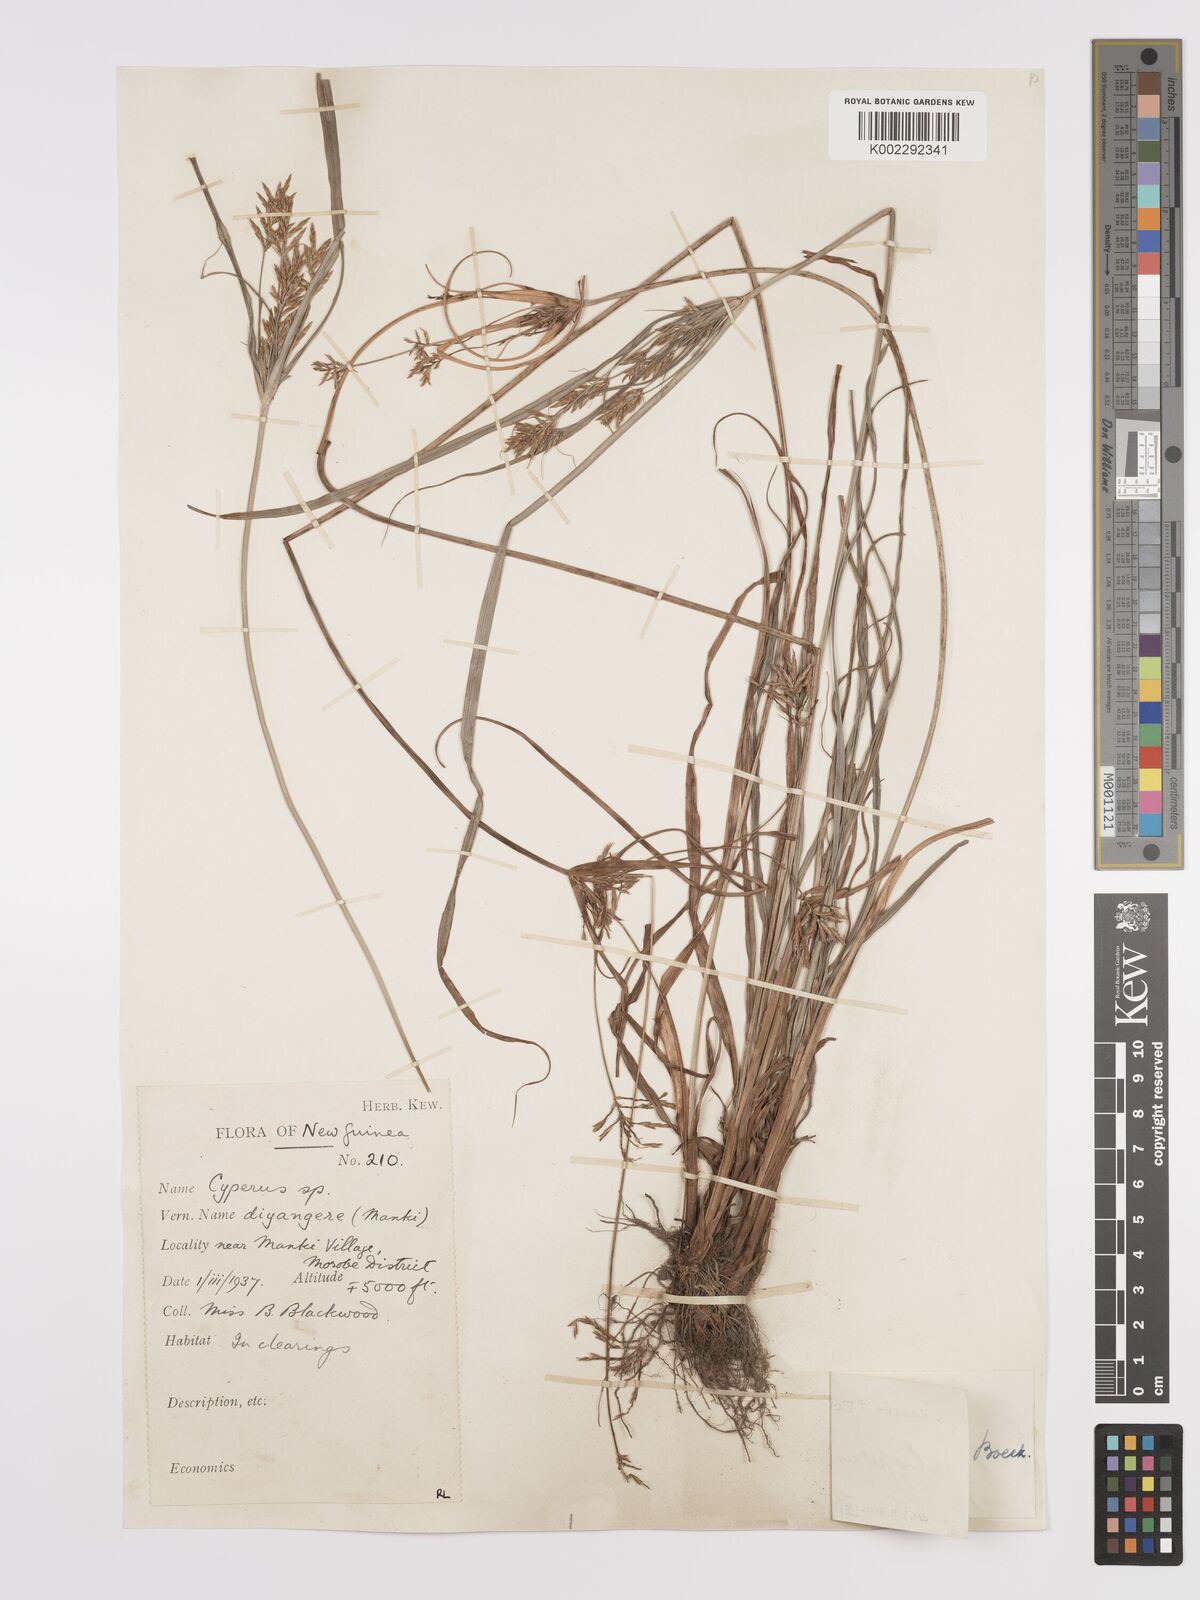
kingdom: Plantae
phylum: Tracheophyta
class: Liliopsida
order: Poales
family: Cyperaceae
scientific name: Cyperaceae
